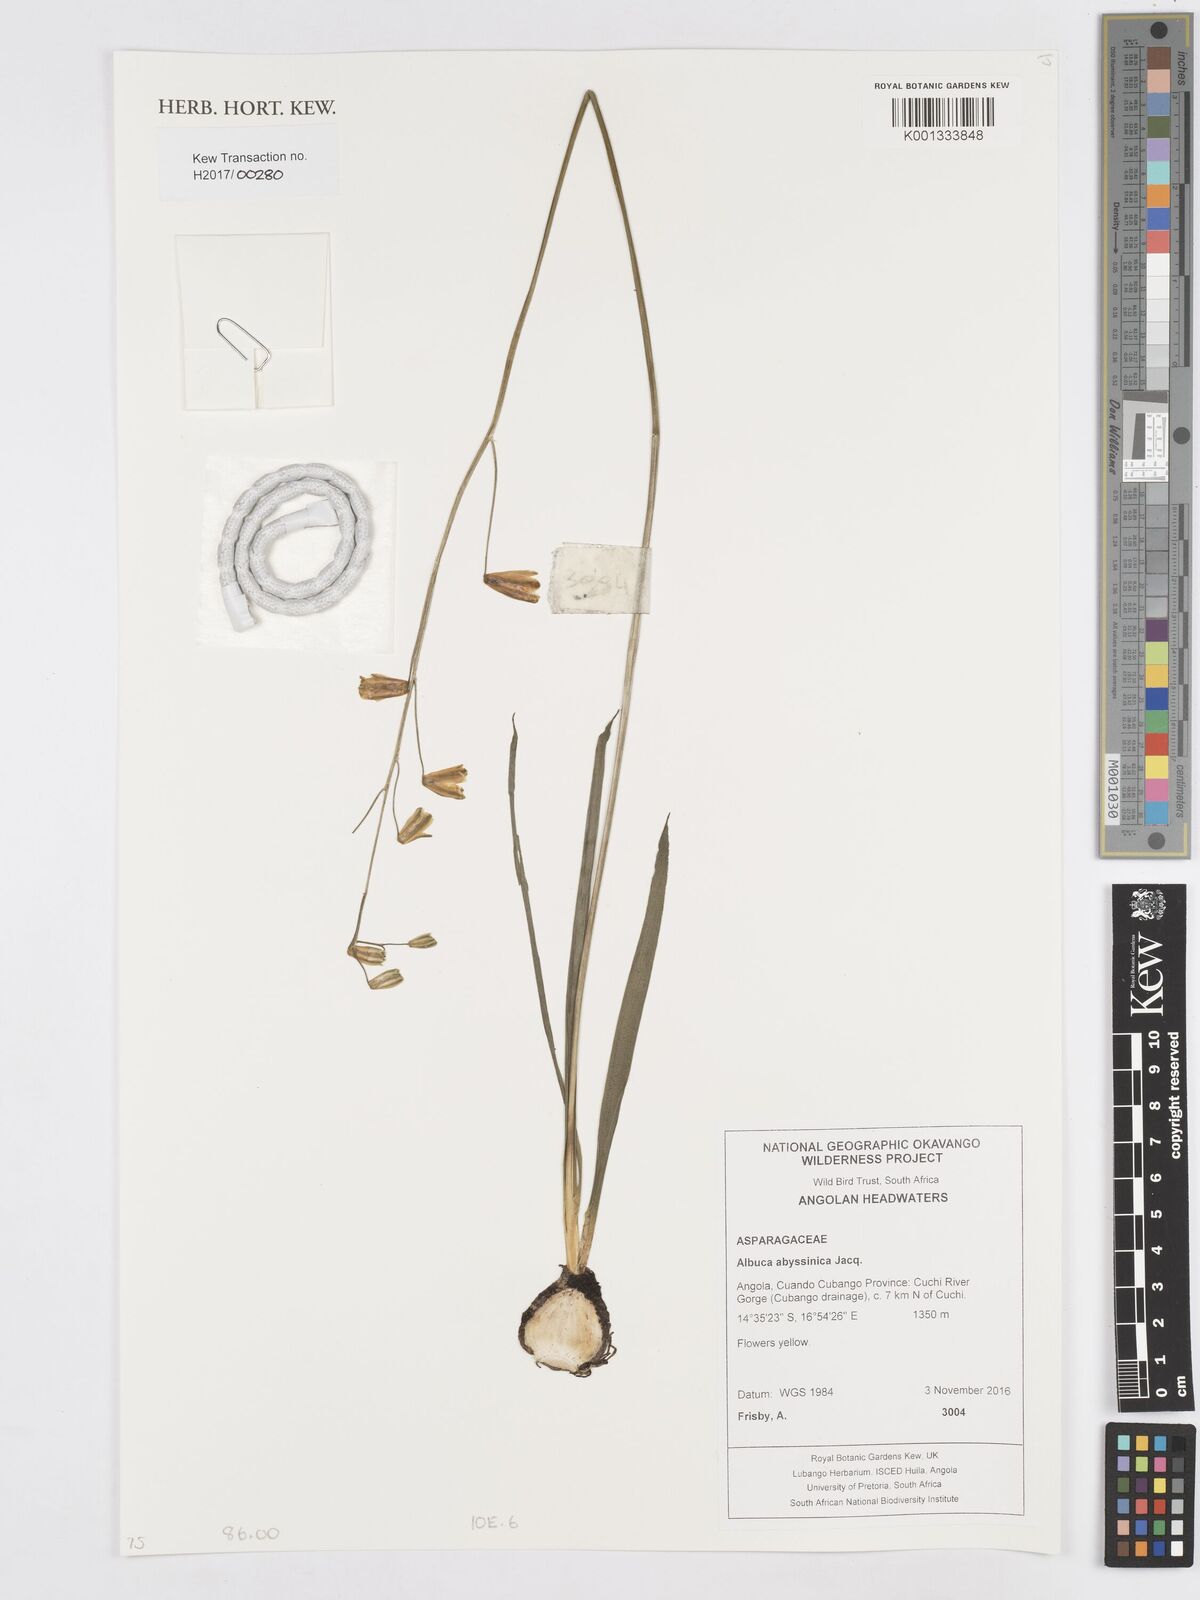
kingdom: Plantae
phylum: Tracheophyta
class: Liliopsida
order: Asparagales
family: Asparagaceae
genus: Albuca
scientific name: Albuca abyssinica
